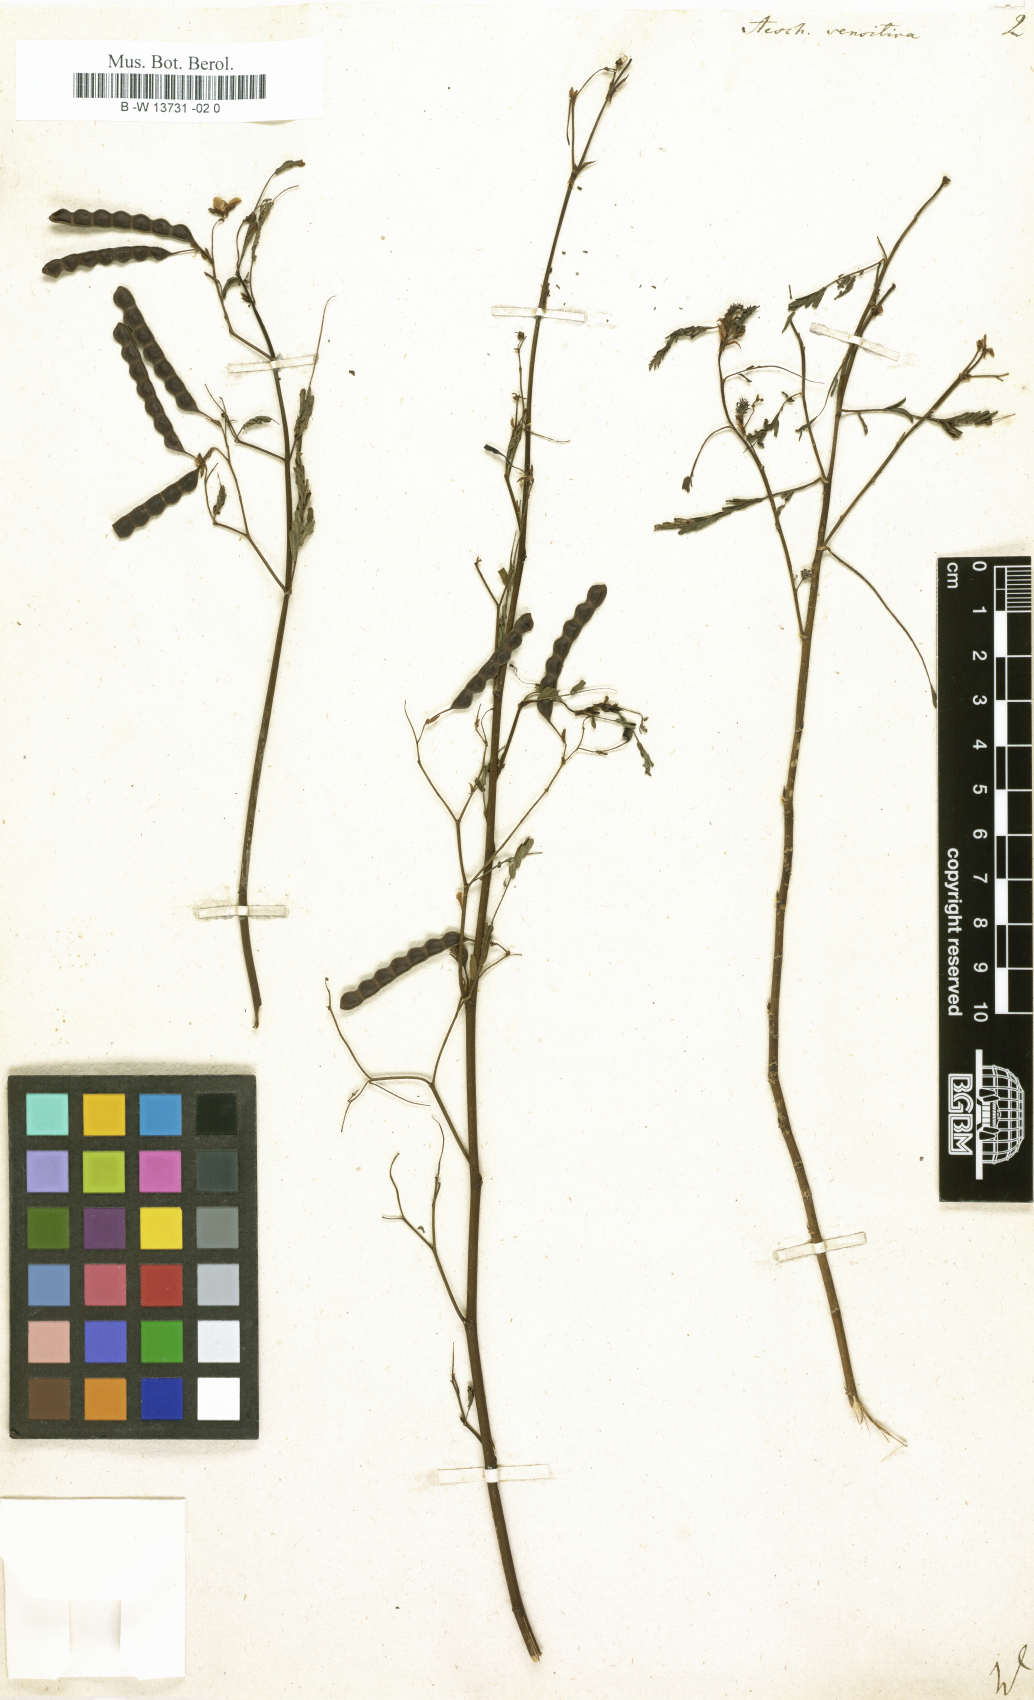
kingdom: Plantae
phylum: Tracheophyta
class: Magnoliopsida
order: Fabales
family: Fabaceae
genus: Aeschynomene
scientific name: Aeschynomene sensitiva
